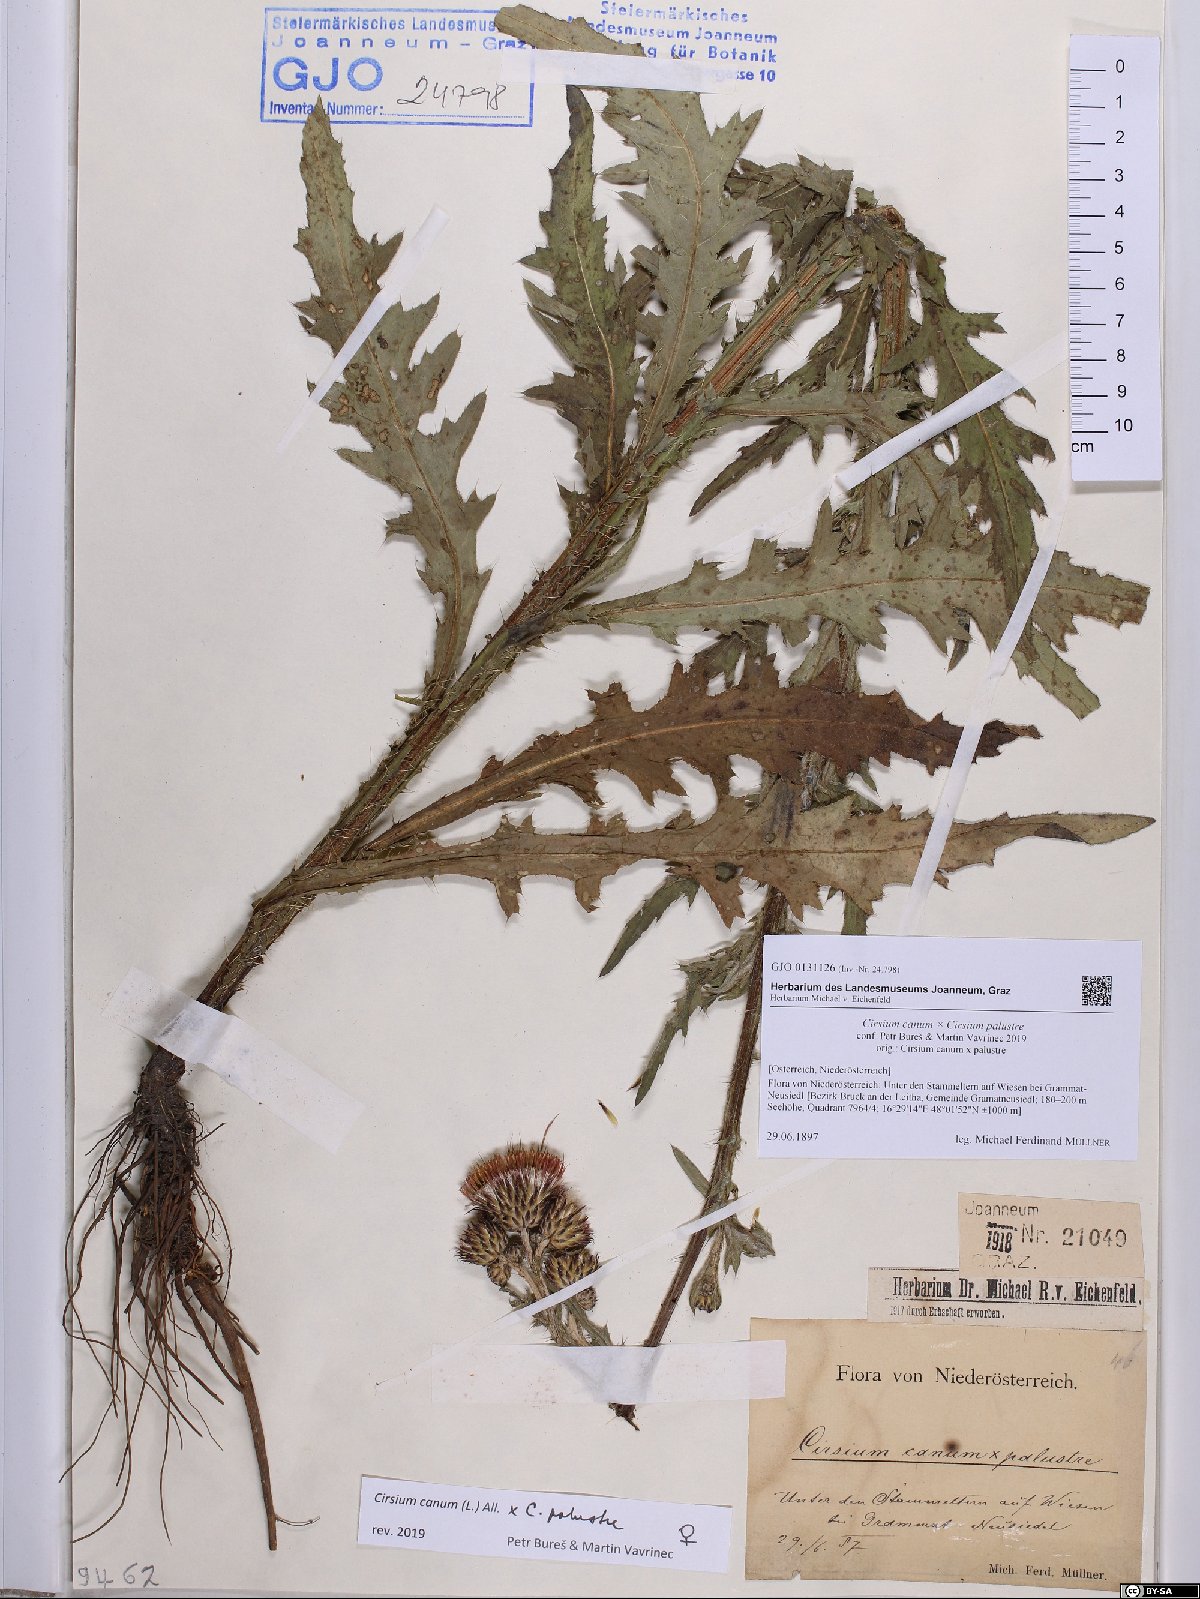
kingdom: Plantae
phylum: Tracheophyta
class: Magnoliopsida
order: Asterales
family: Asteraceae
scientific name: Asteraceae
